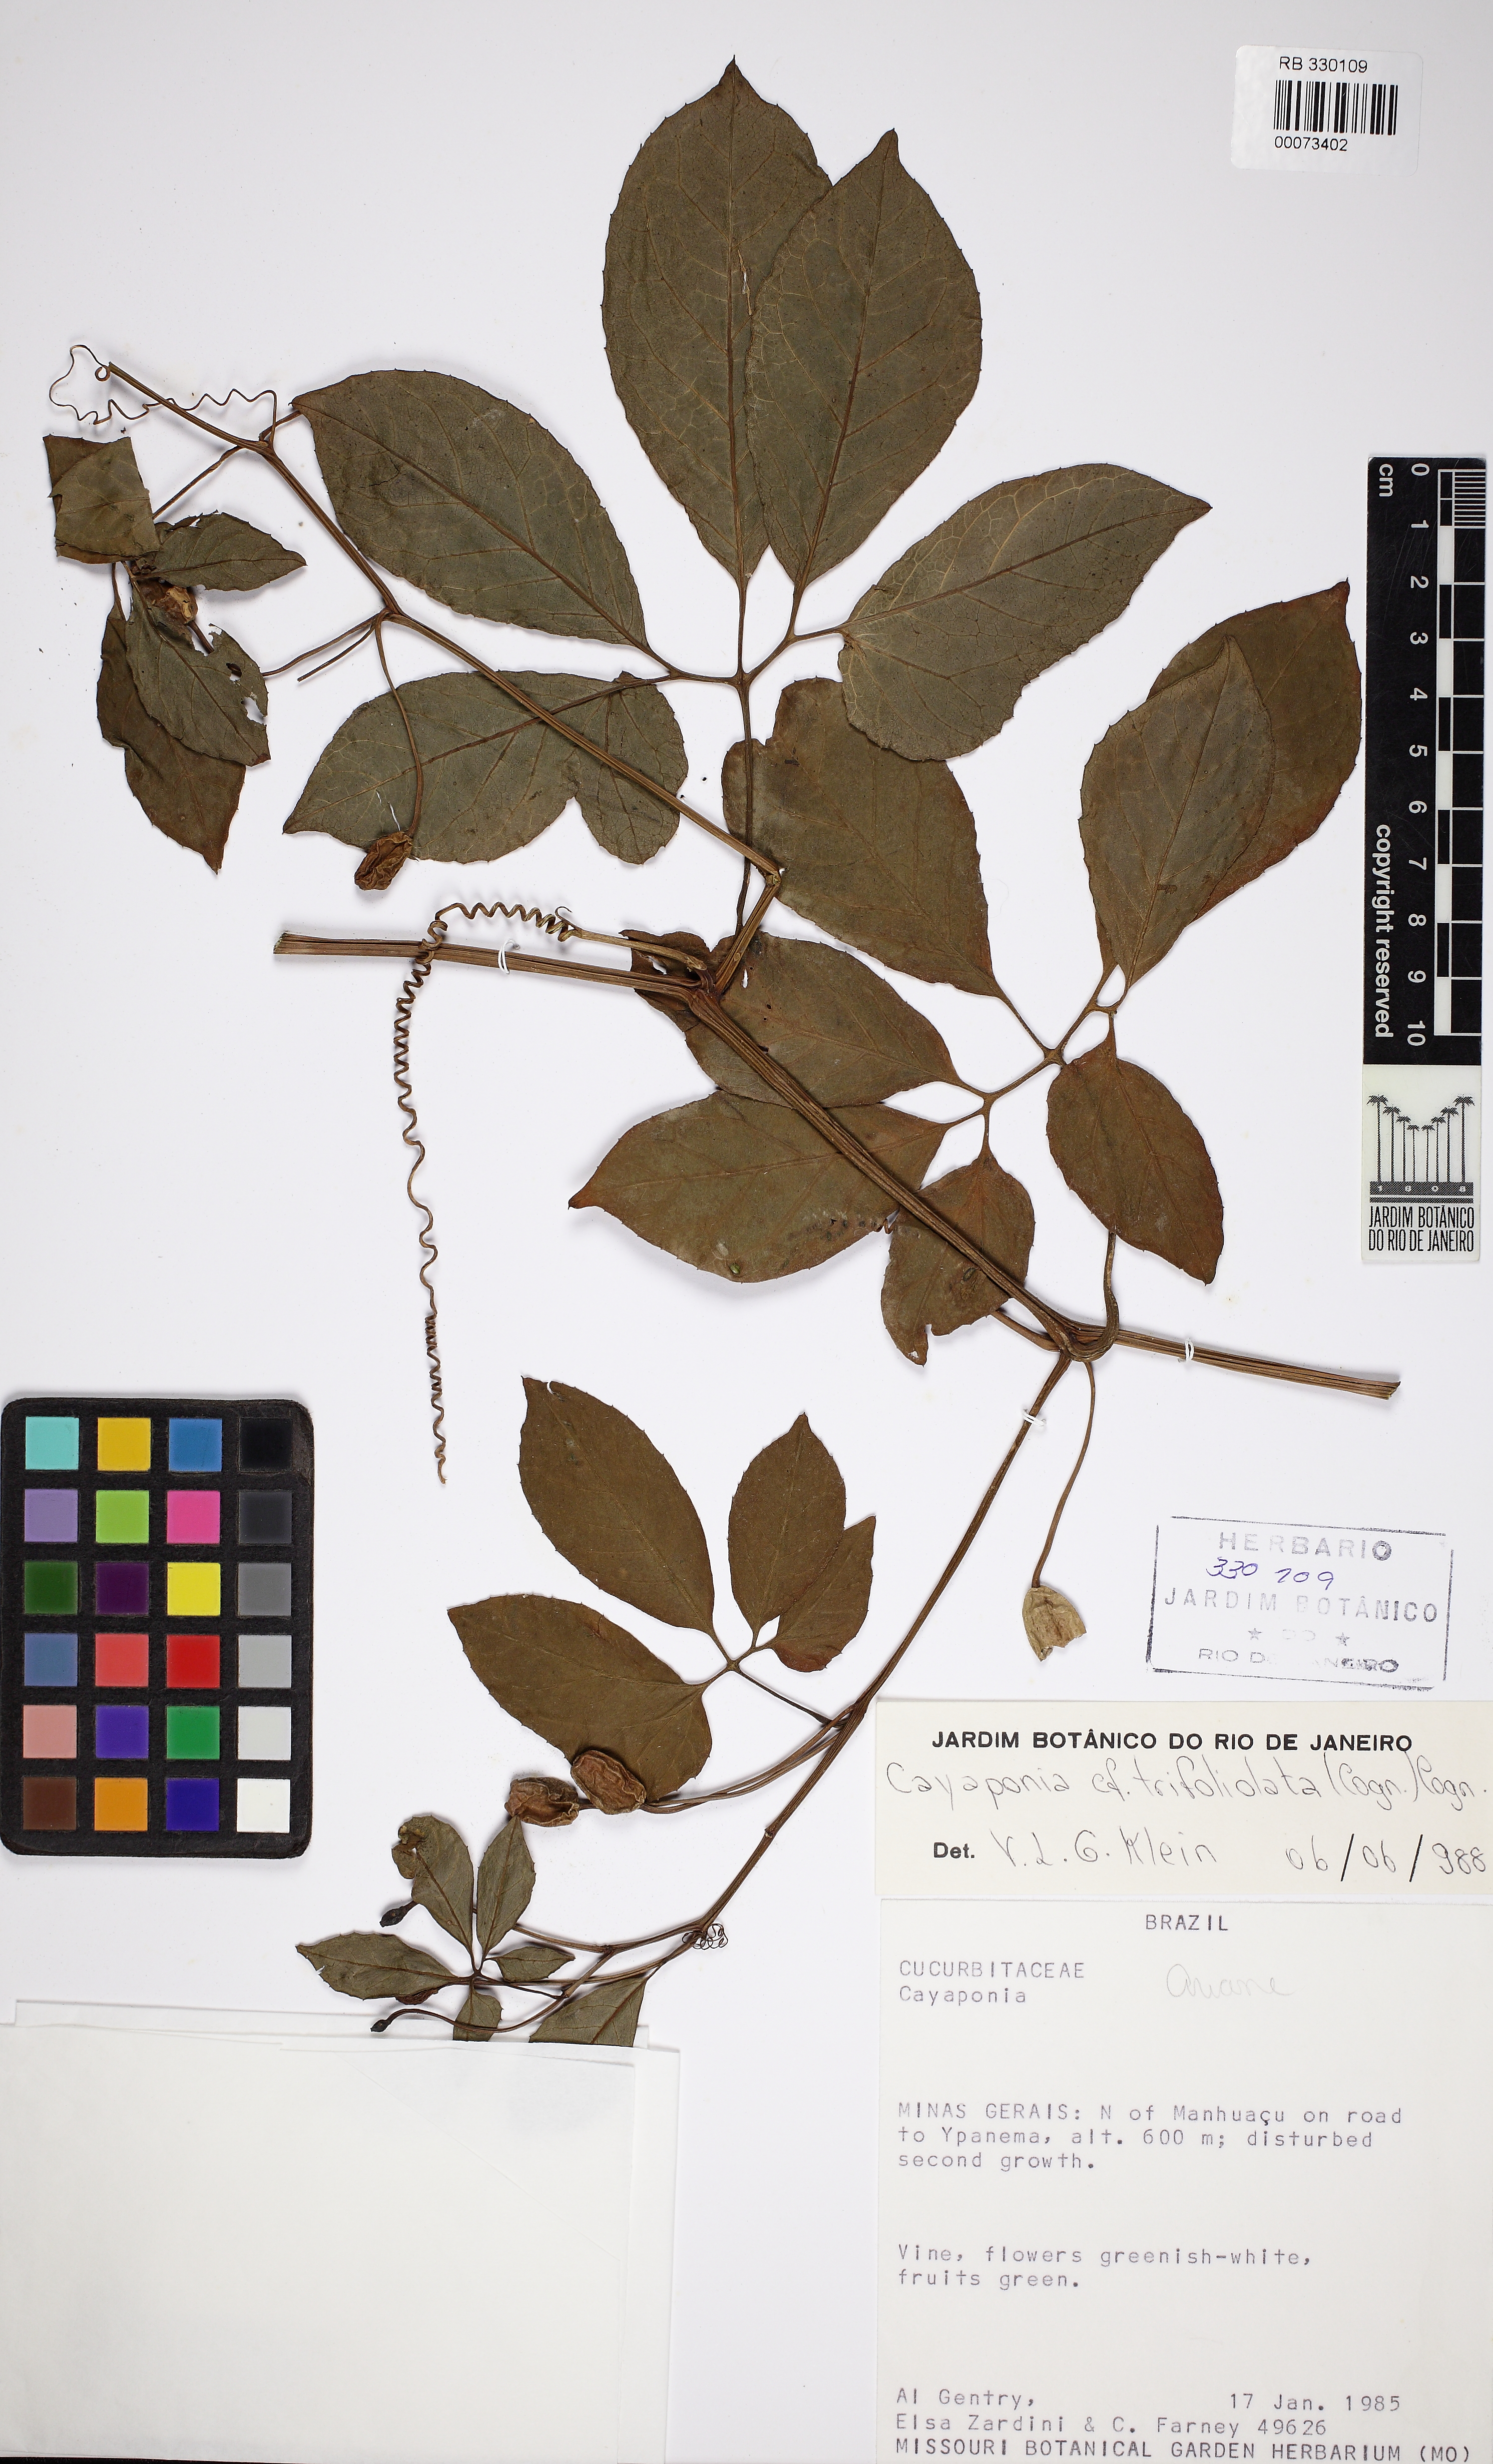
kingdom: Plantae
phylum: Tracheophyta
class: Magnoliopsida
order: Cucurbitales
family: Cucurbitaceae
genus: Cayaponia
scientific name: Cayaponia trifoliolata
